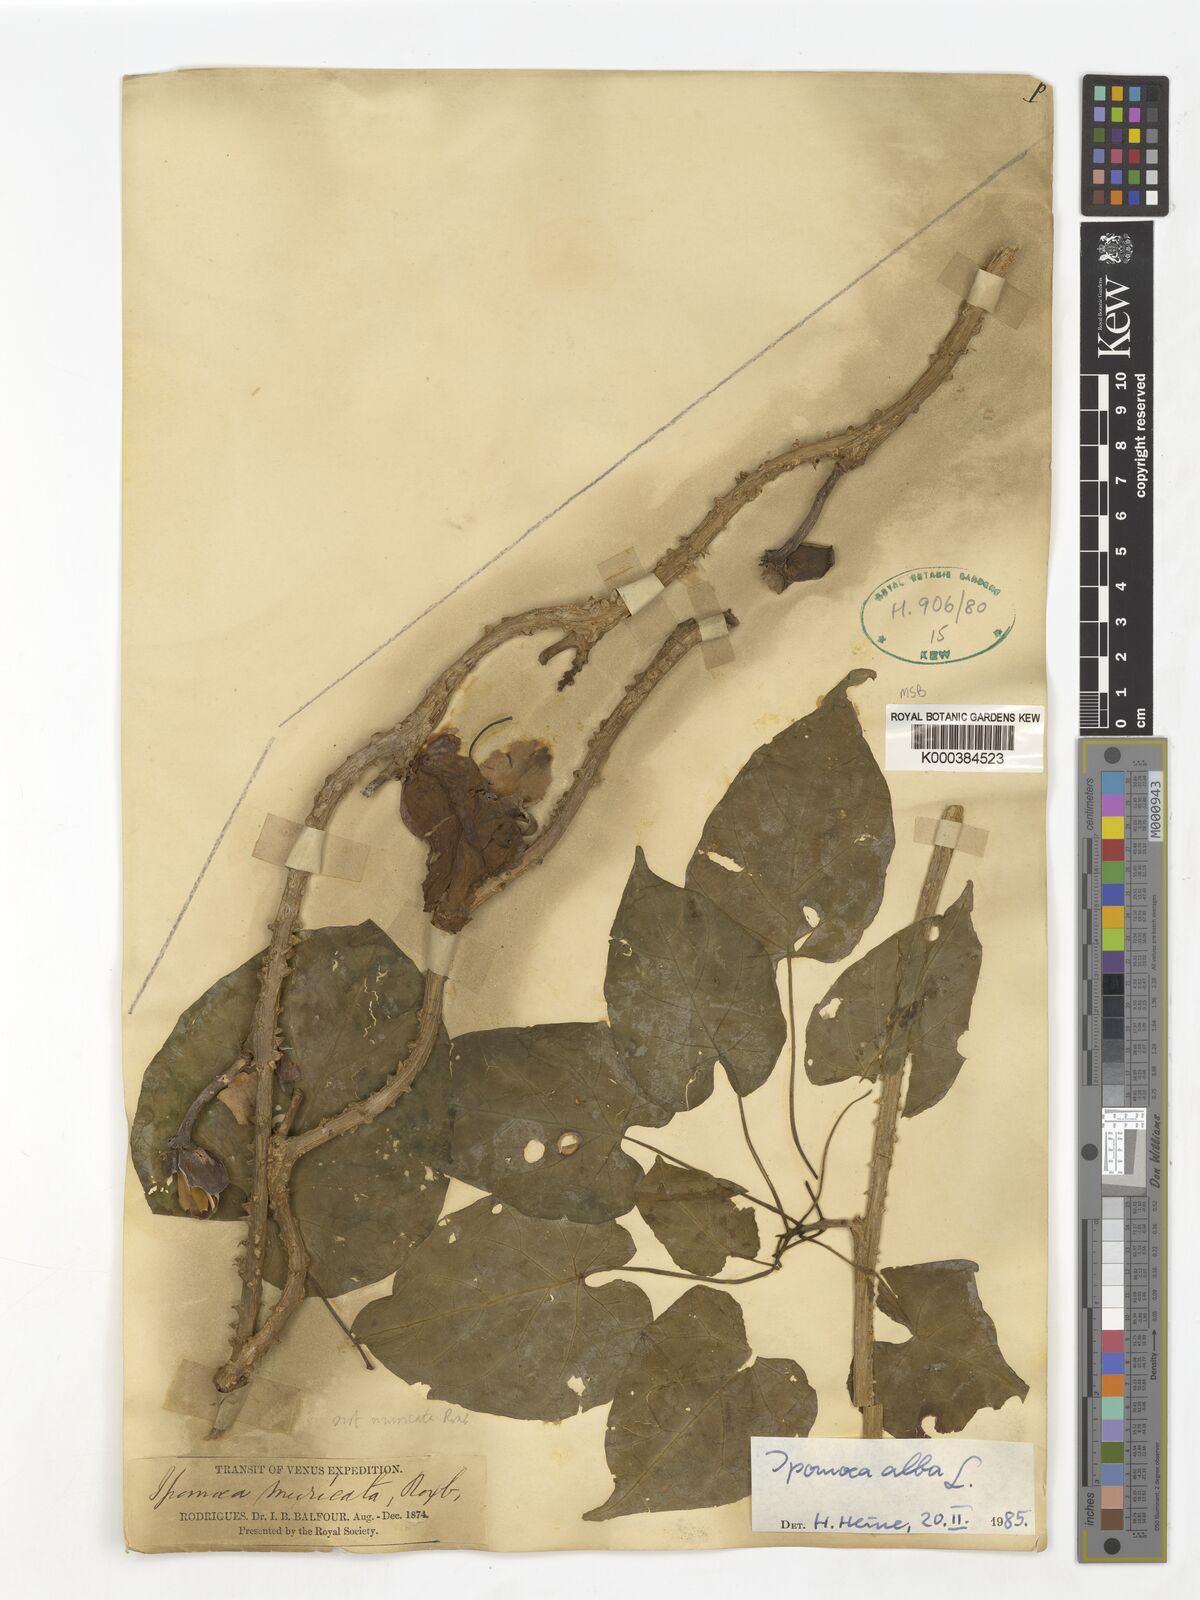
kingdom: Plantae
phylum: Tracheophyta
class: Magnoliopsida
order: Solanales
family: Convolvulaceae
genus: Ipomoea
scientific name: Ipomoea alba
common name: Moonflower
